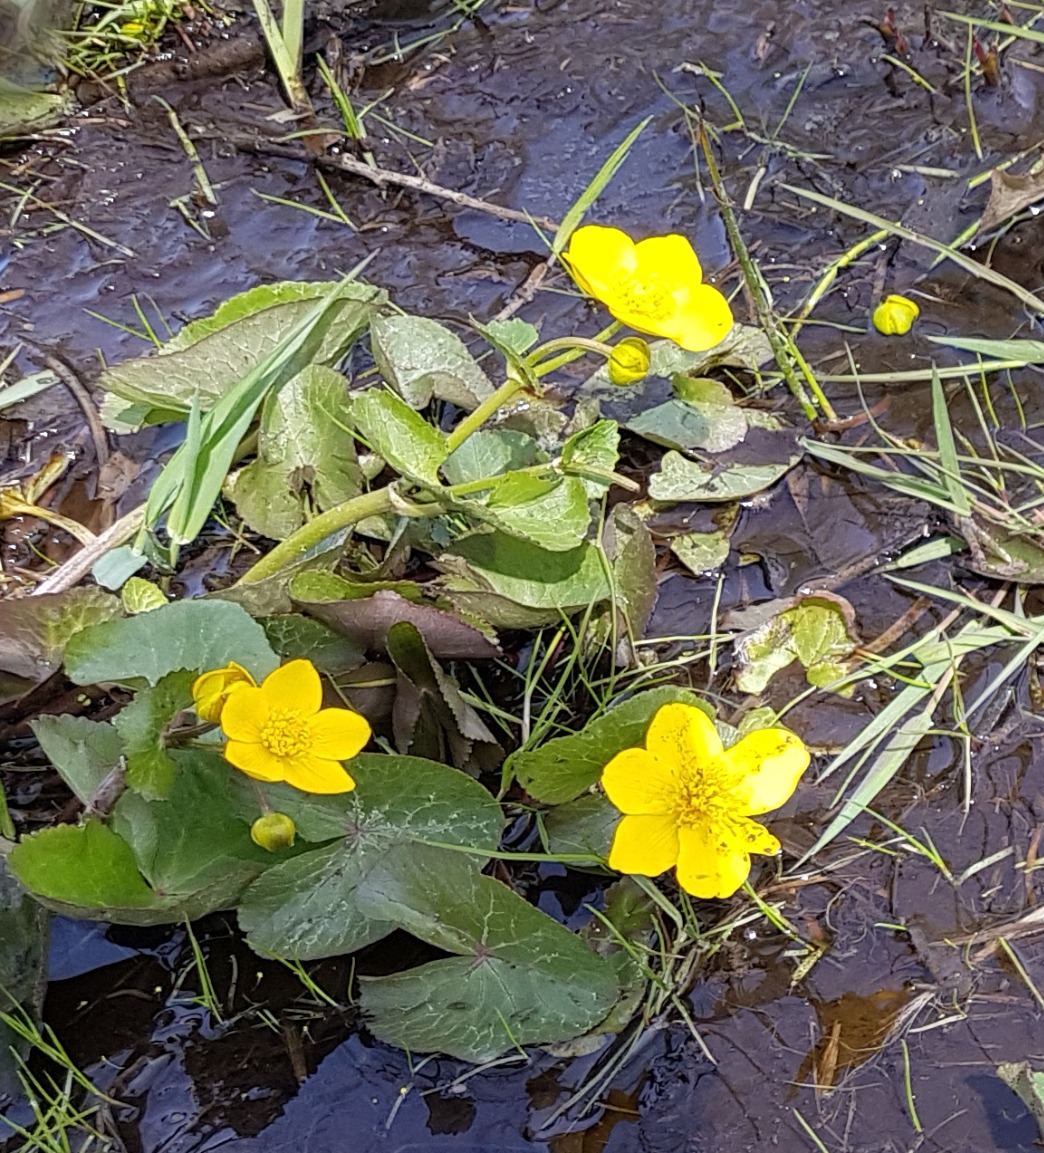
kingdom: Plantae
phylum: Tracheophyta
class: Magnoliopsida
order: Ranunculales
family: Ranunculaceae
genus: Caltha
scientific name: Caltha palustris
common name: Eng-kabbeleje
